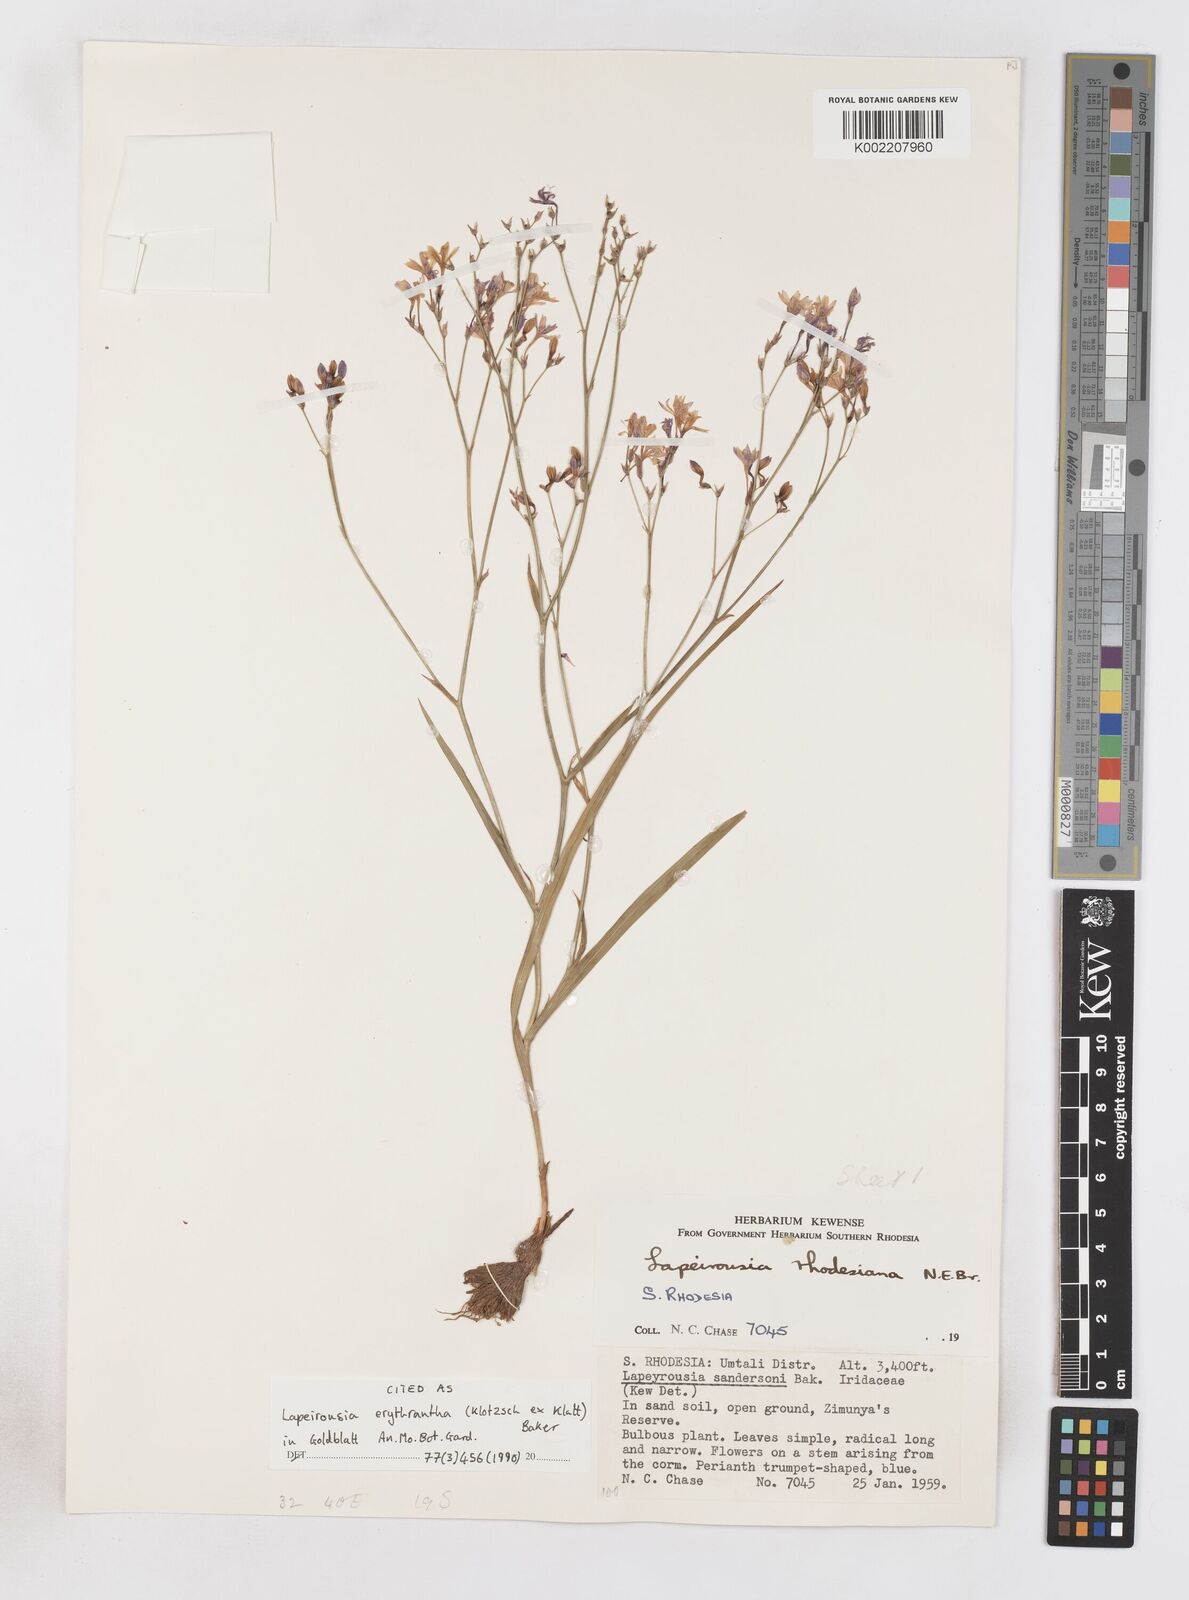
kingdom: Plantae
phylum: Tracheophyta
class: Liliopsida
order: Asparagales
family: Iridaceae
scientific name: Iridaceae
